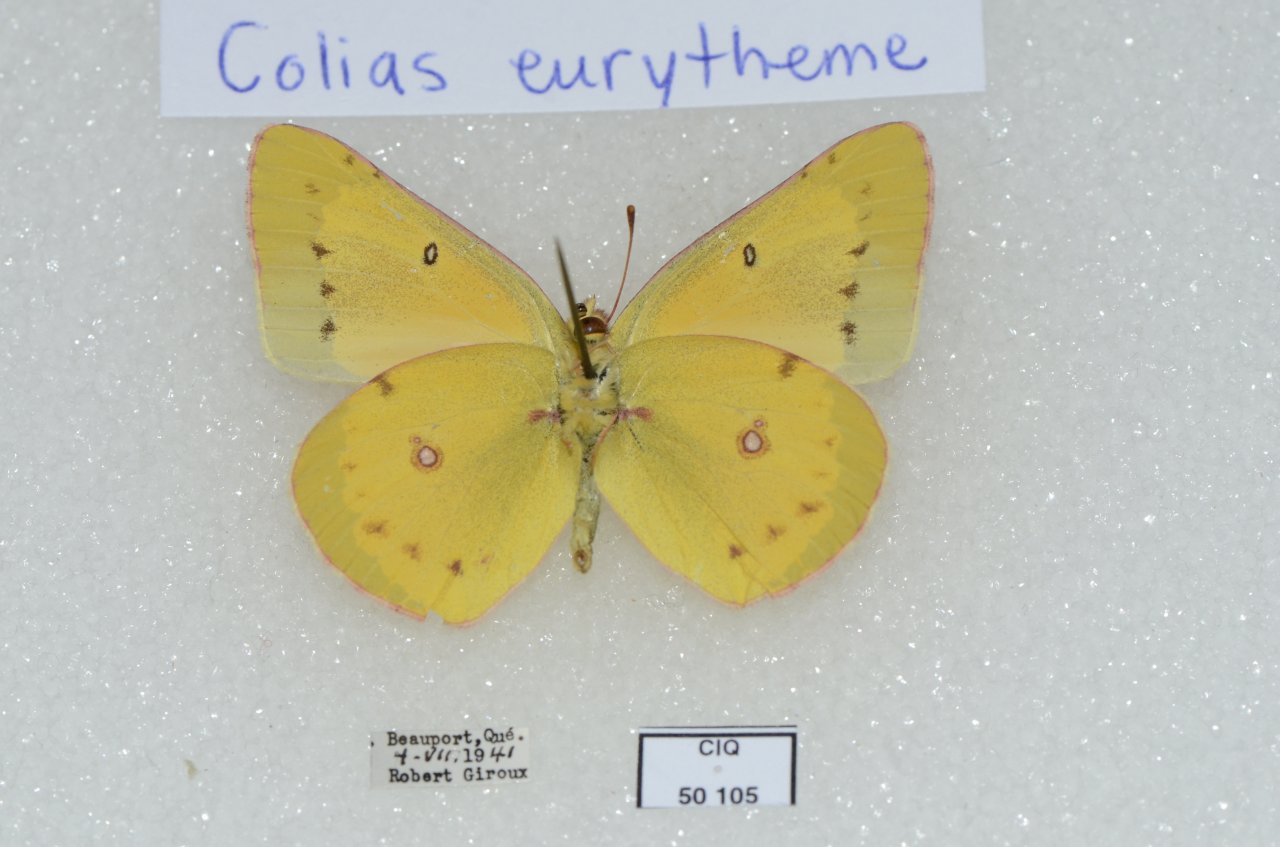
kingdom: Animalia
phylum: Arthropoda
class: Insecta
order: Lepidoptera
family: Pieridae
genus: Colias
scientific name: Colias eurytheme
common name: Orange Sulphur
